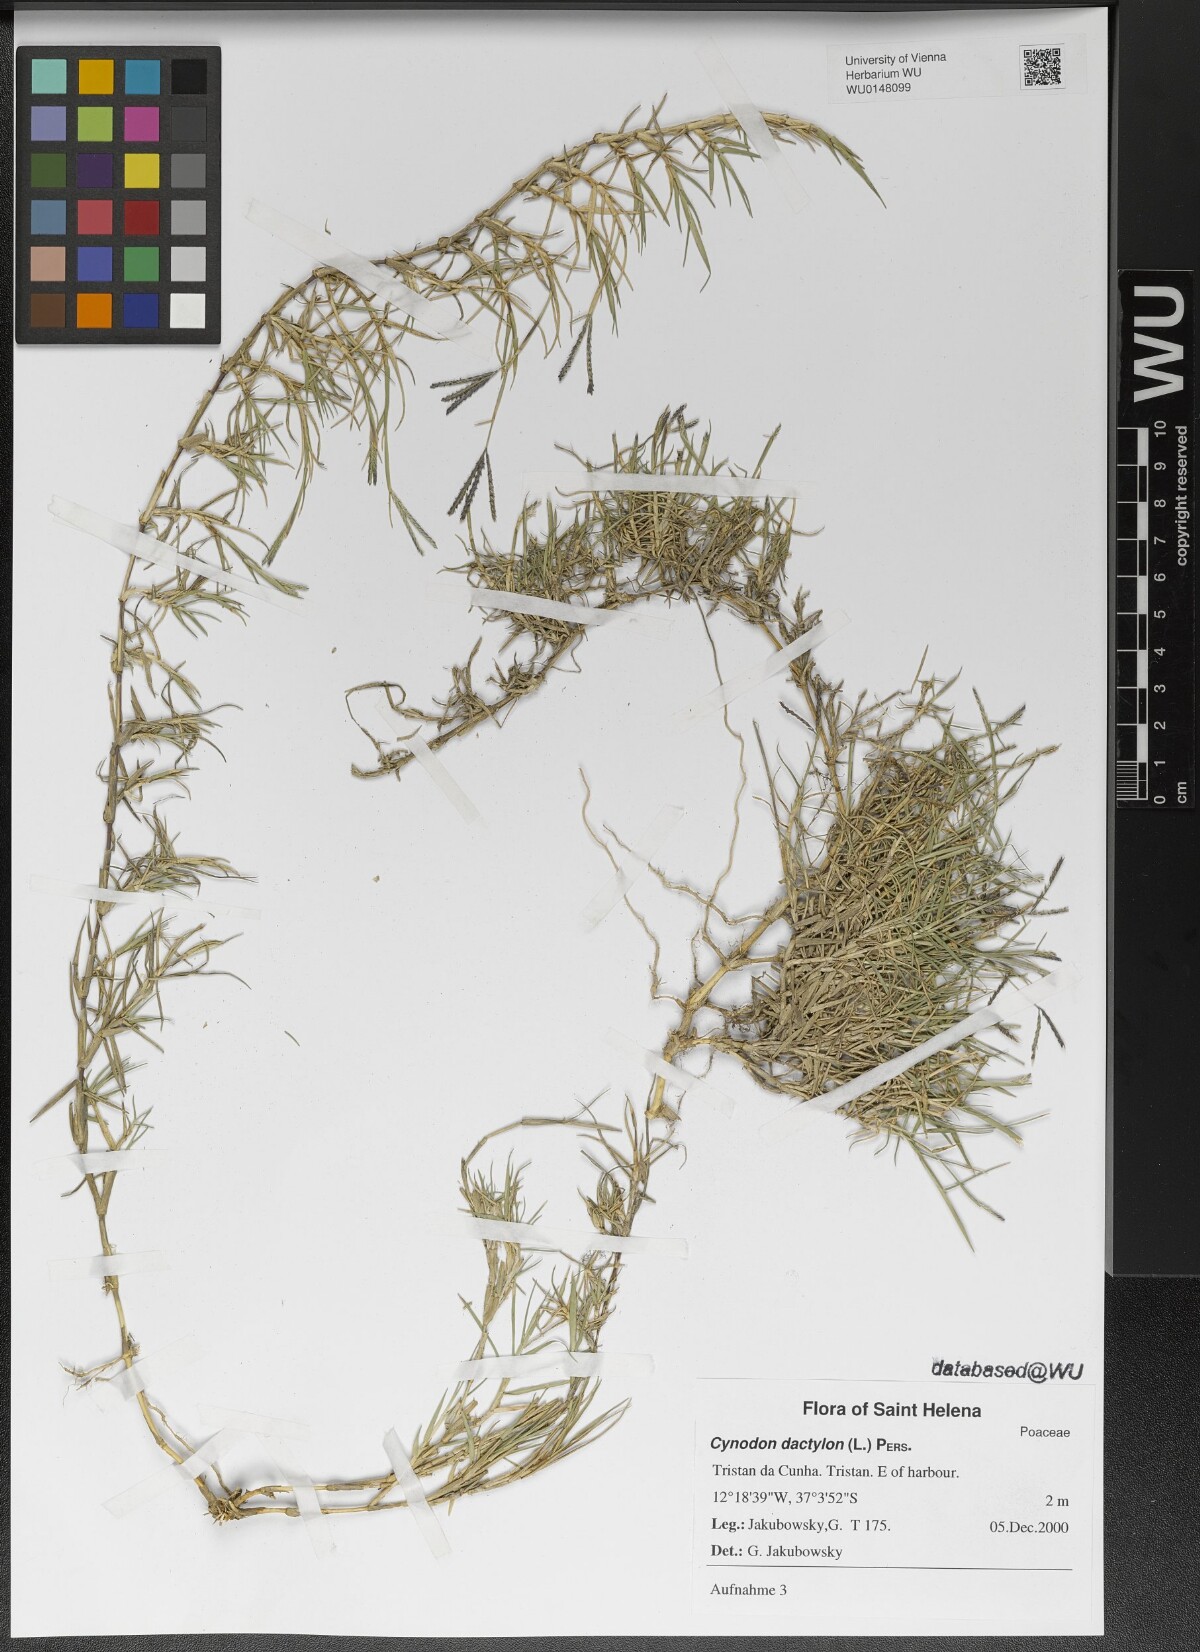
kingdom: Plantae
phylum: Tracheophyta
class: Liliopsida
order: Poales
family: Poaceae
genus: Cynodon
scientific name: Cynodon dactylon
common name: Bermuda grass
